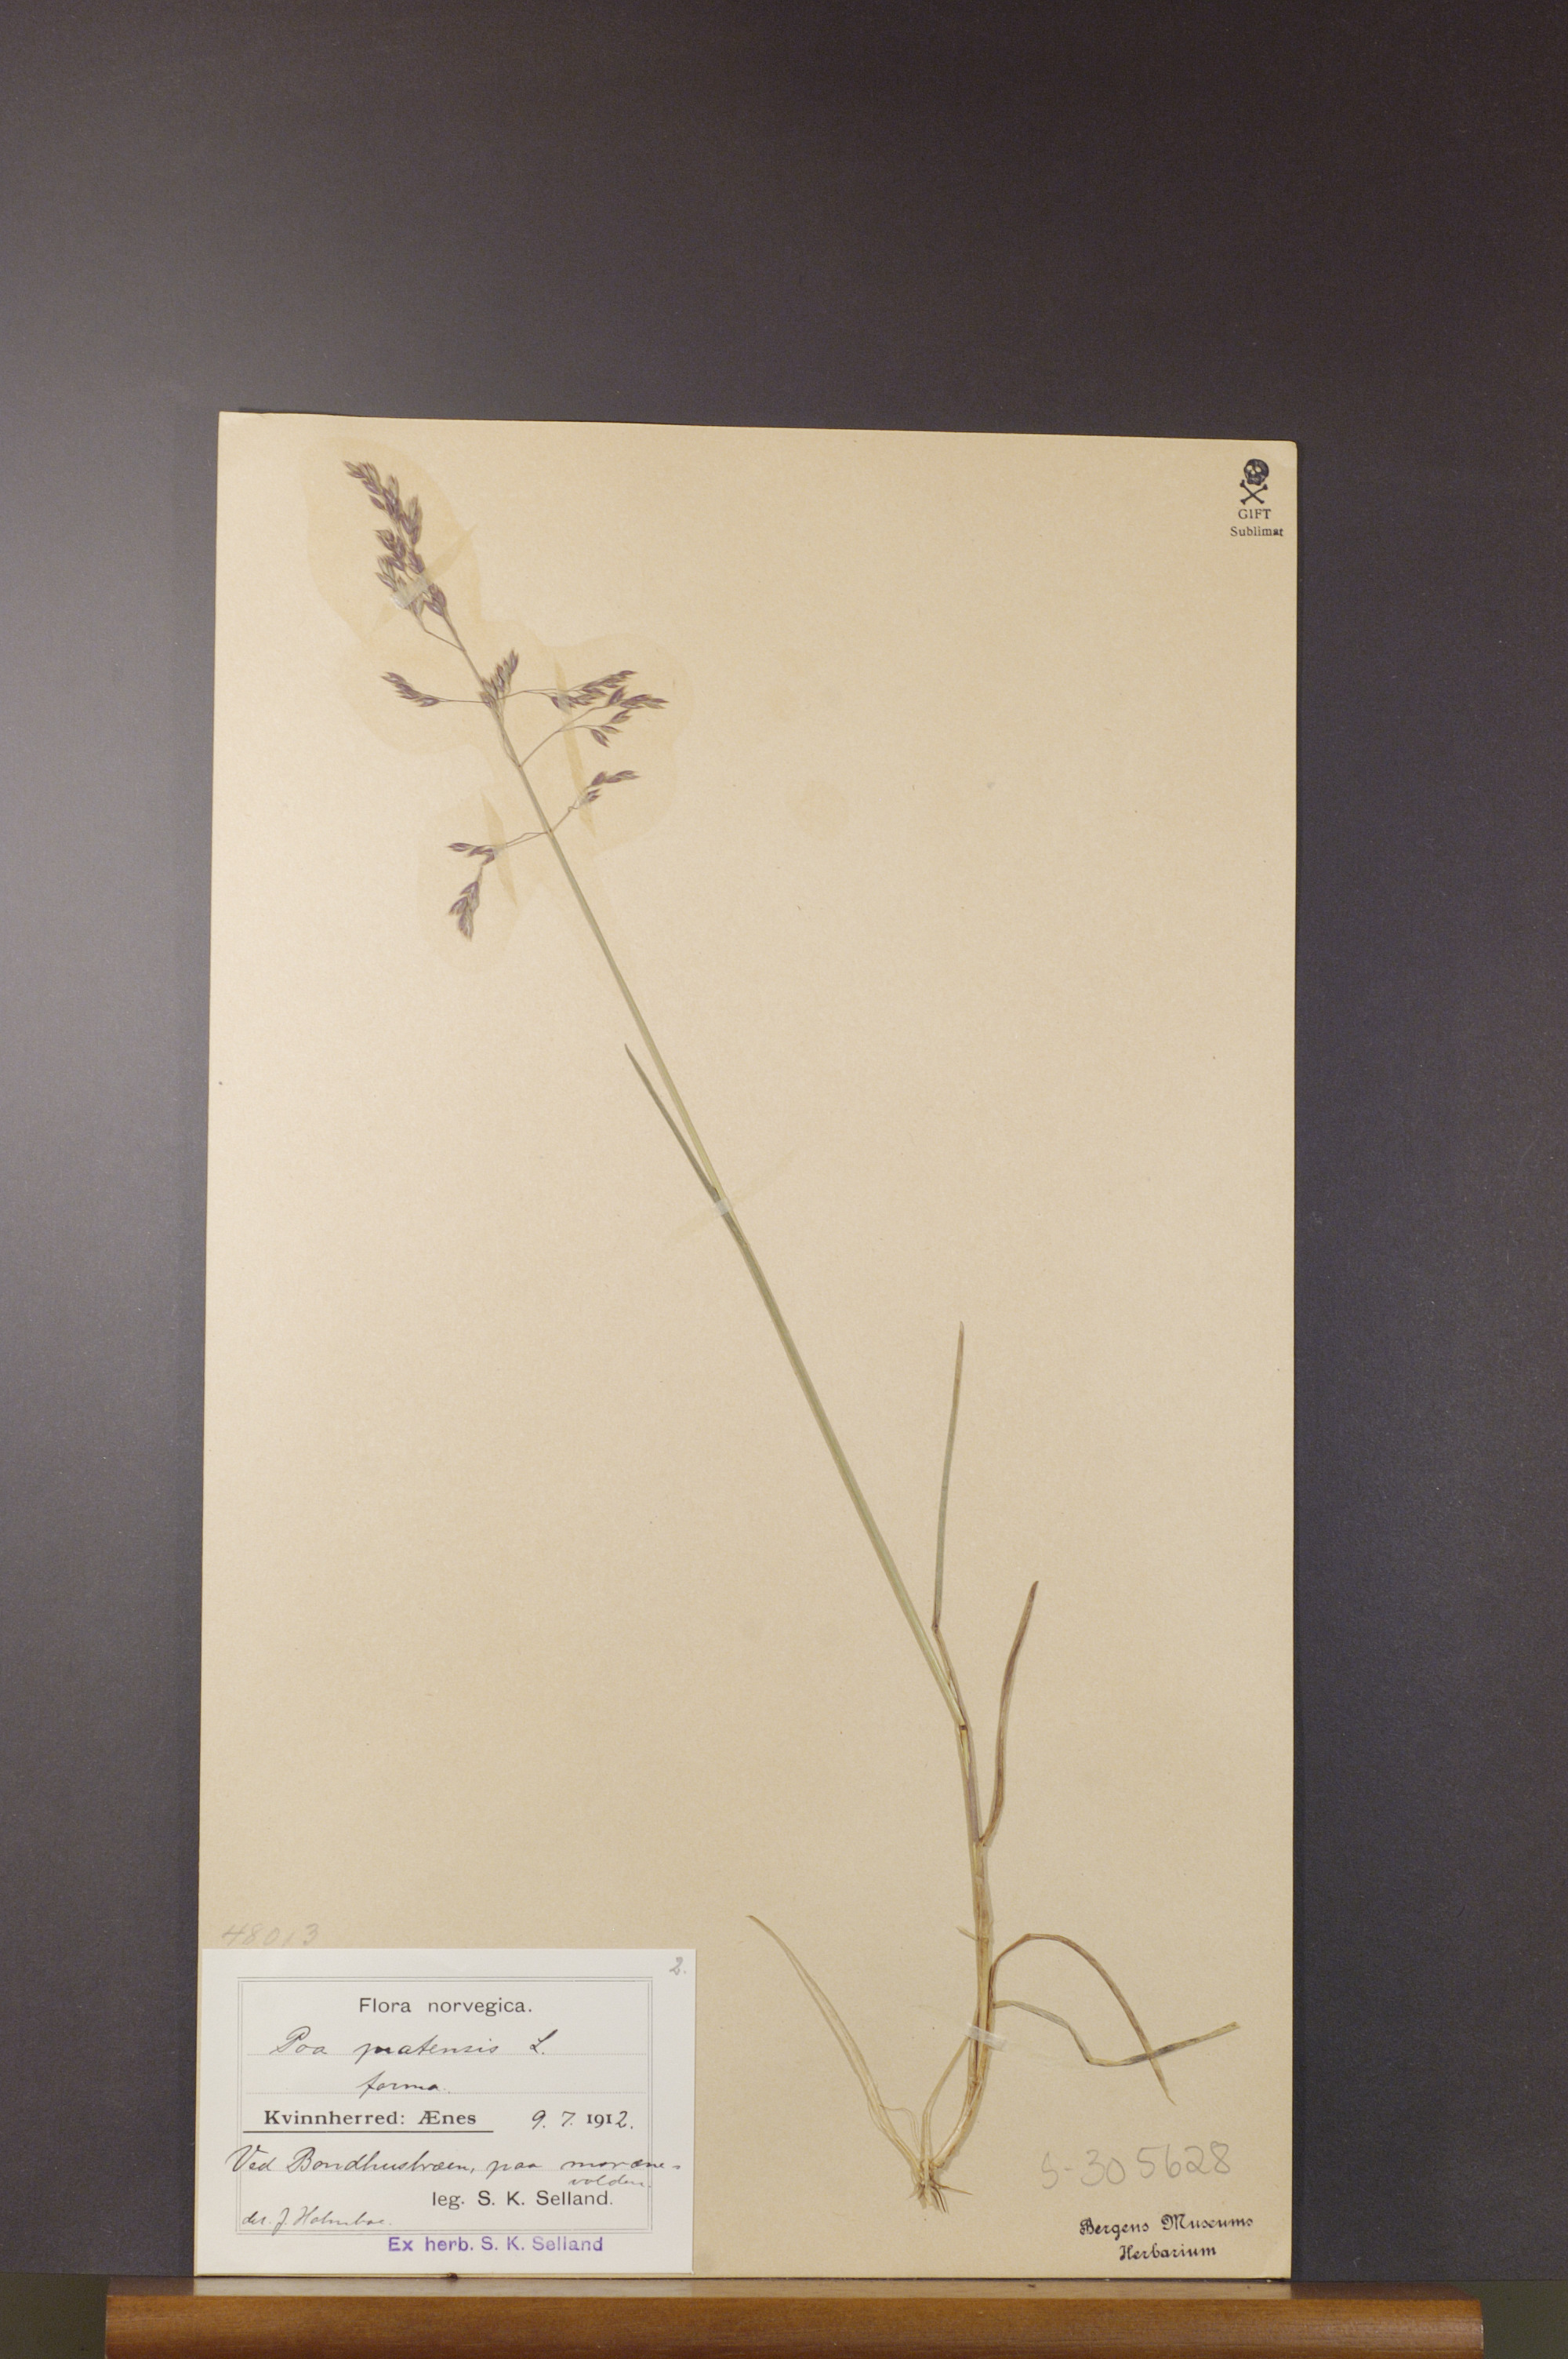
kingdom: Plantae
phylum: Tracheophyta
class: Liliopsida
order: Poales
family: Poaceae
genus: Poa
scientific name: Poa pratensis
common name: Kentucky bluegrass
